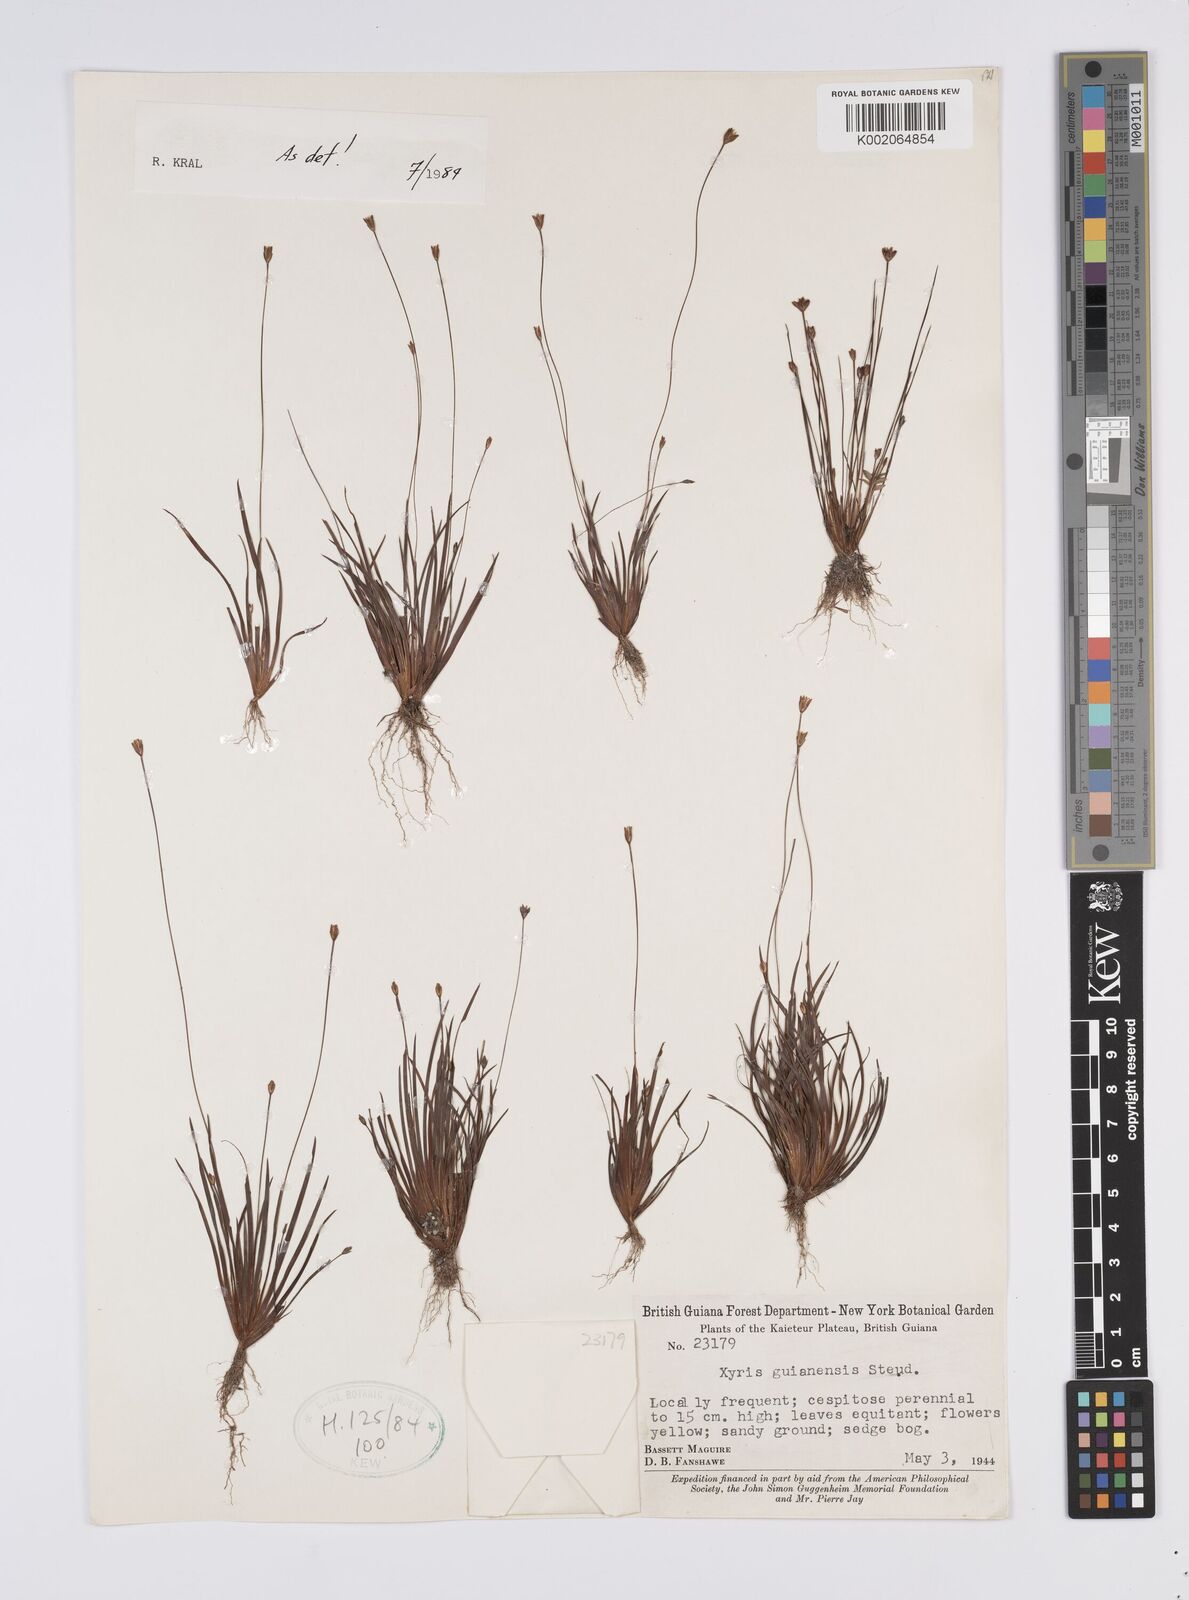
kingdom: Plantae
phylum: Tracheophyta
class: Liliopsida
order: Poales
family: Xyridaceae
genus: Xyris
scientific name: Xyris guianensis
